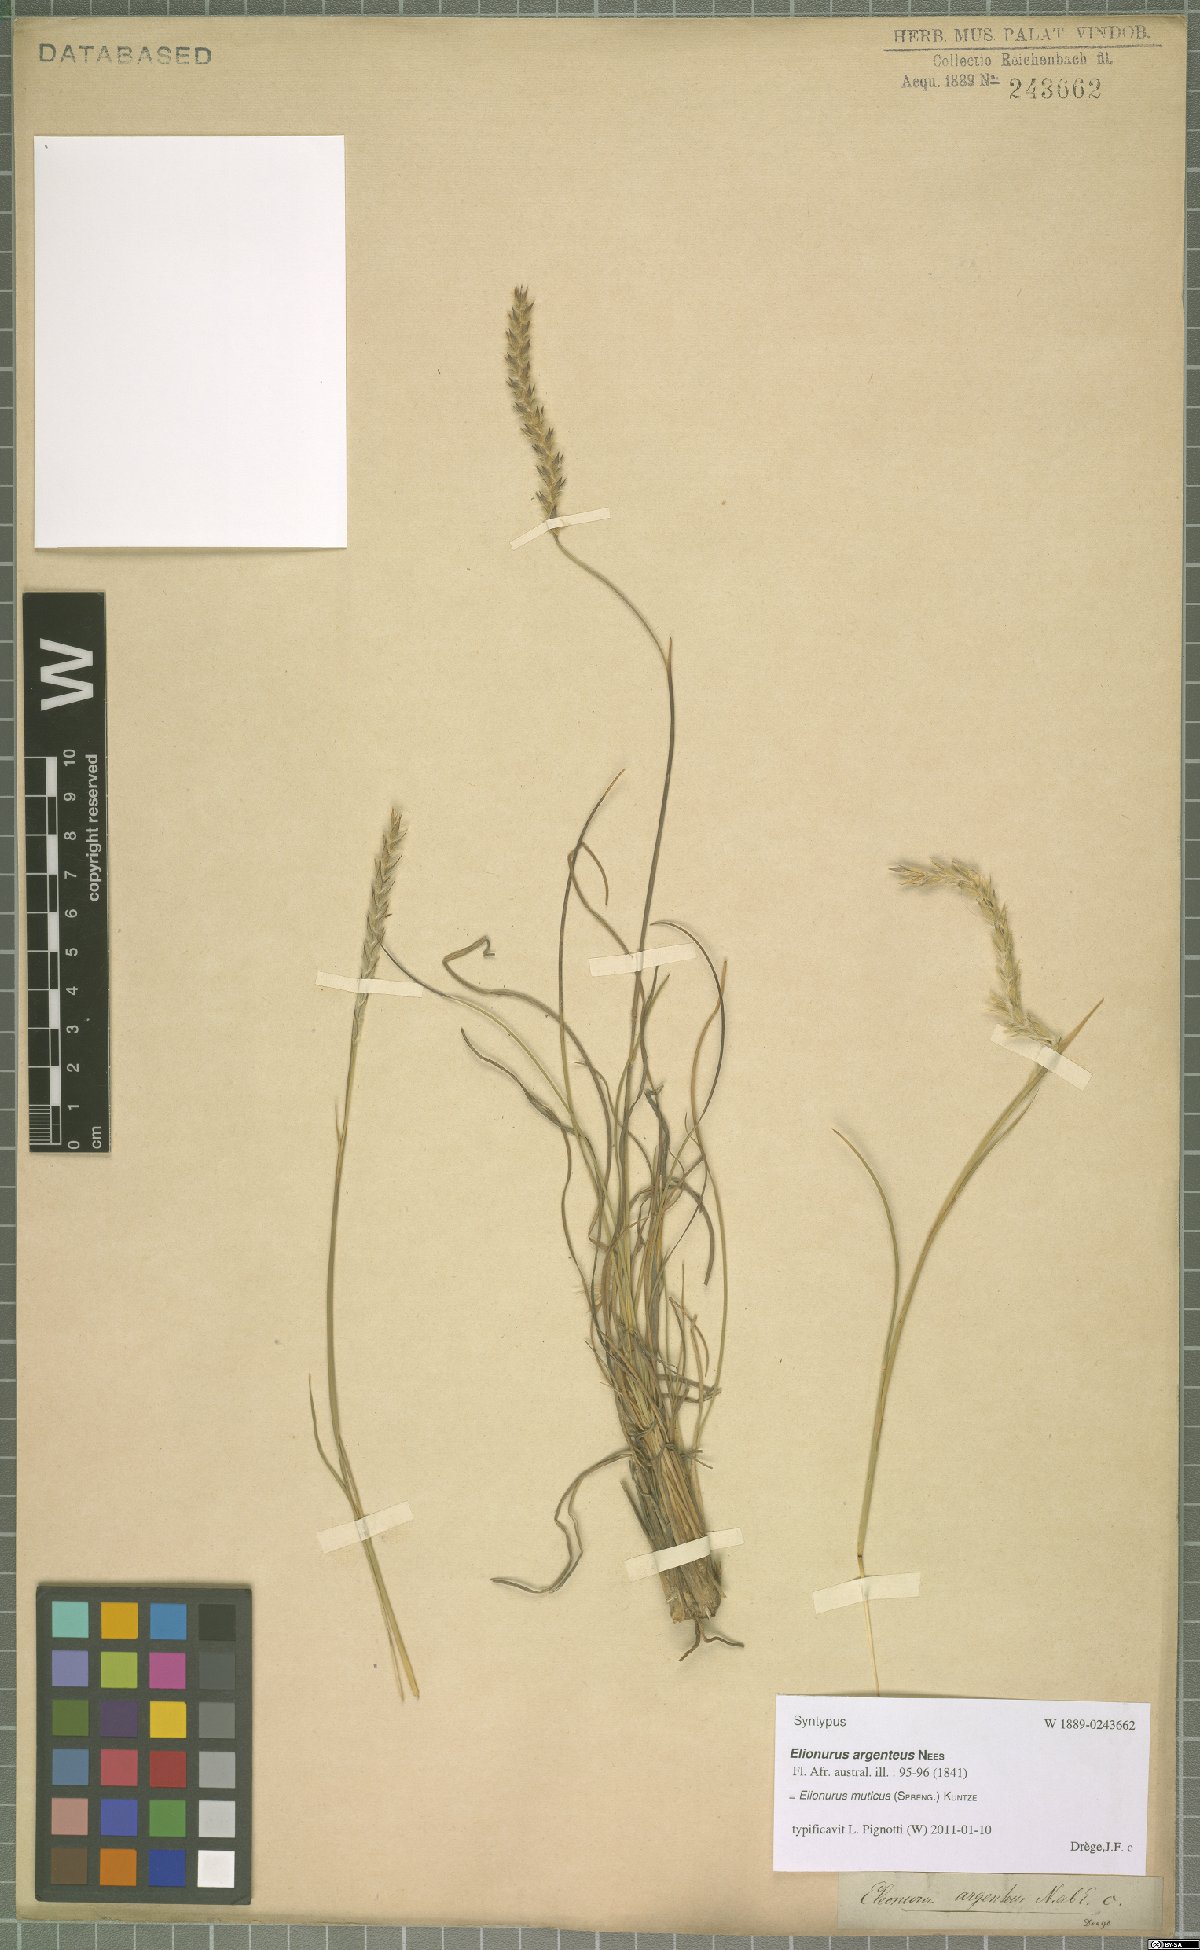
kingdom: Plantae
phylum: Tracheophyta
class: Liliopsida
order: Poales
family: Poaceae
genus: Elionurus
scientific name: Elionurus muticus
